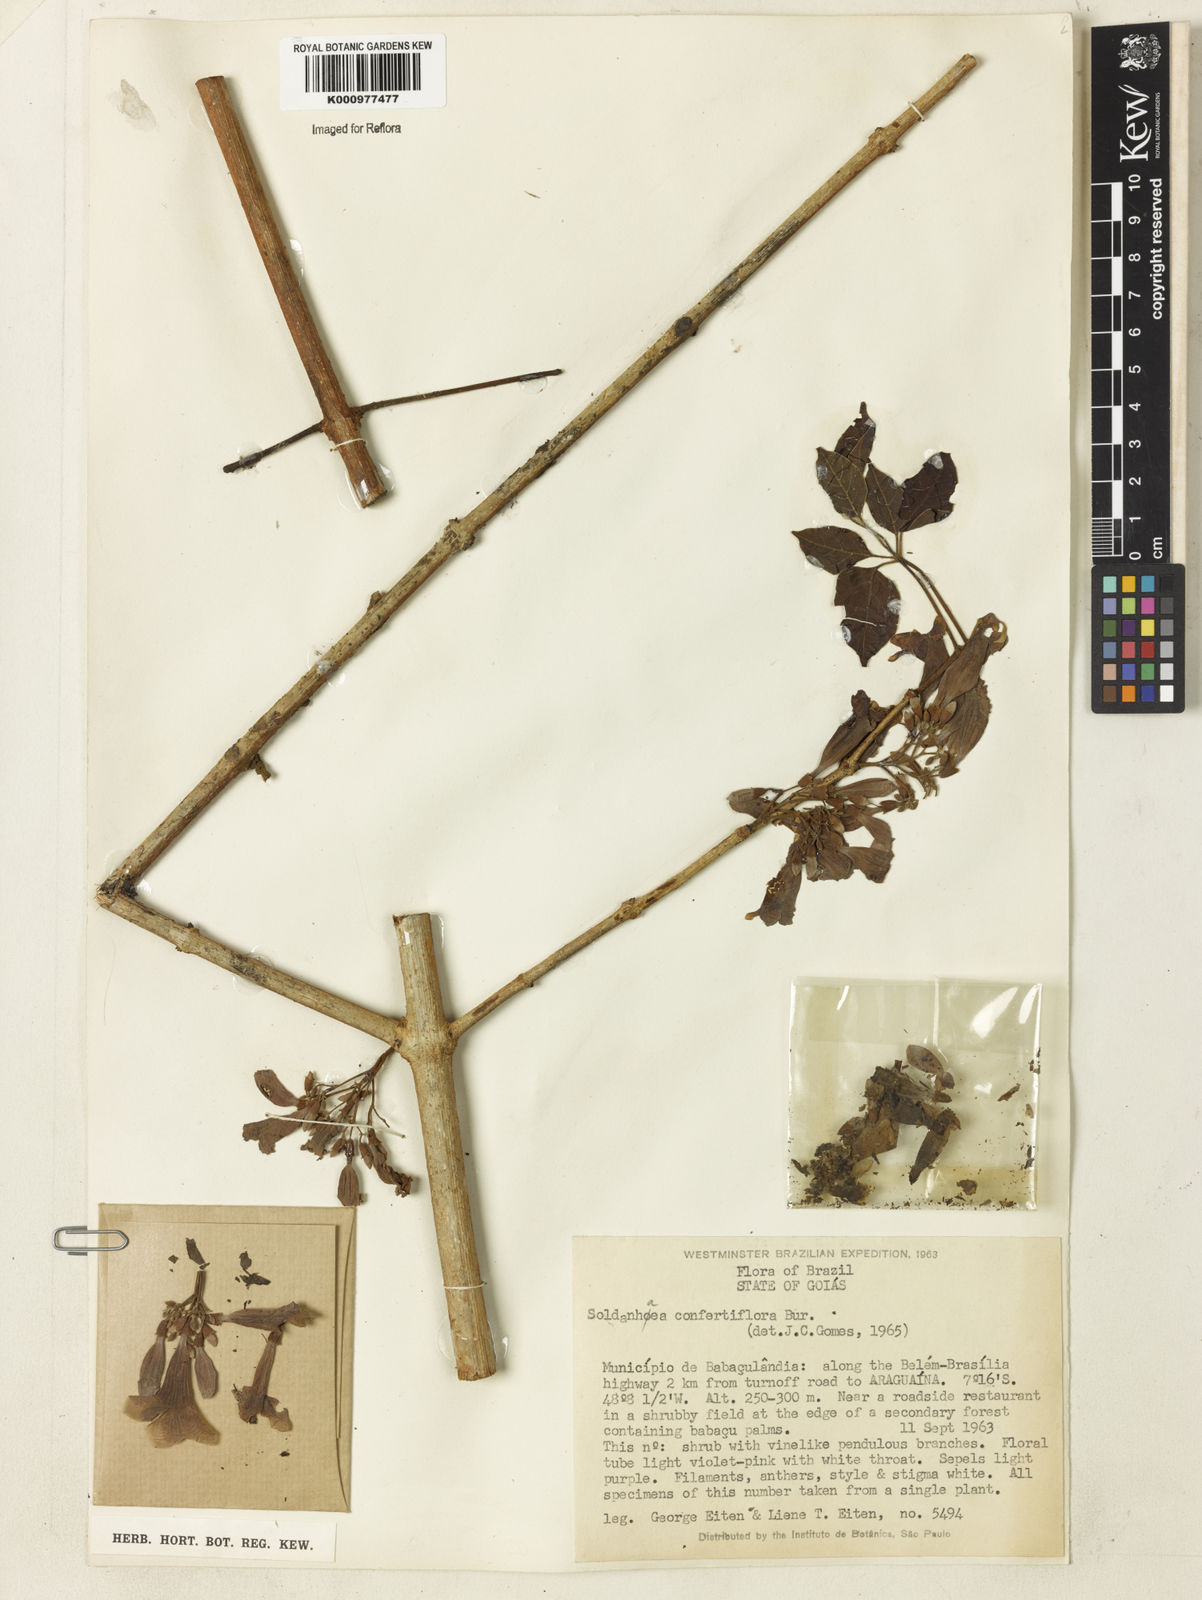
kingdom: Plantae
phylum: Tracheophyta
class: Magnoliopsida
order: Lamiales
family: Bignoniaceae
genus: Cuspidaria
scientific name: Cuspidaria
